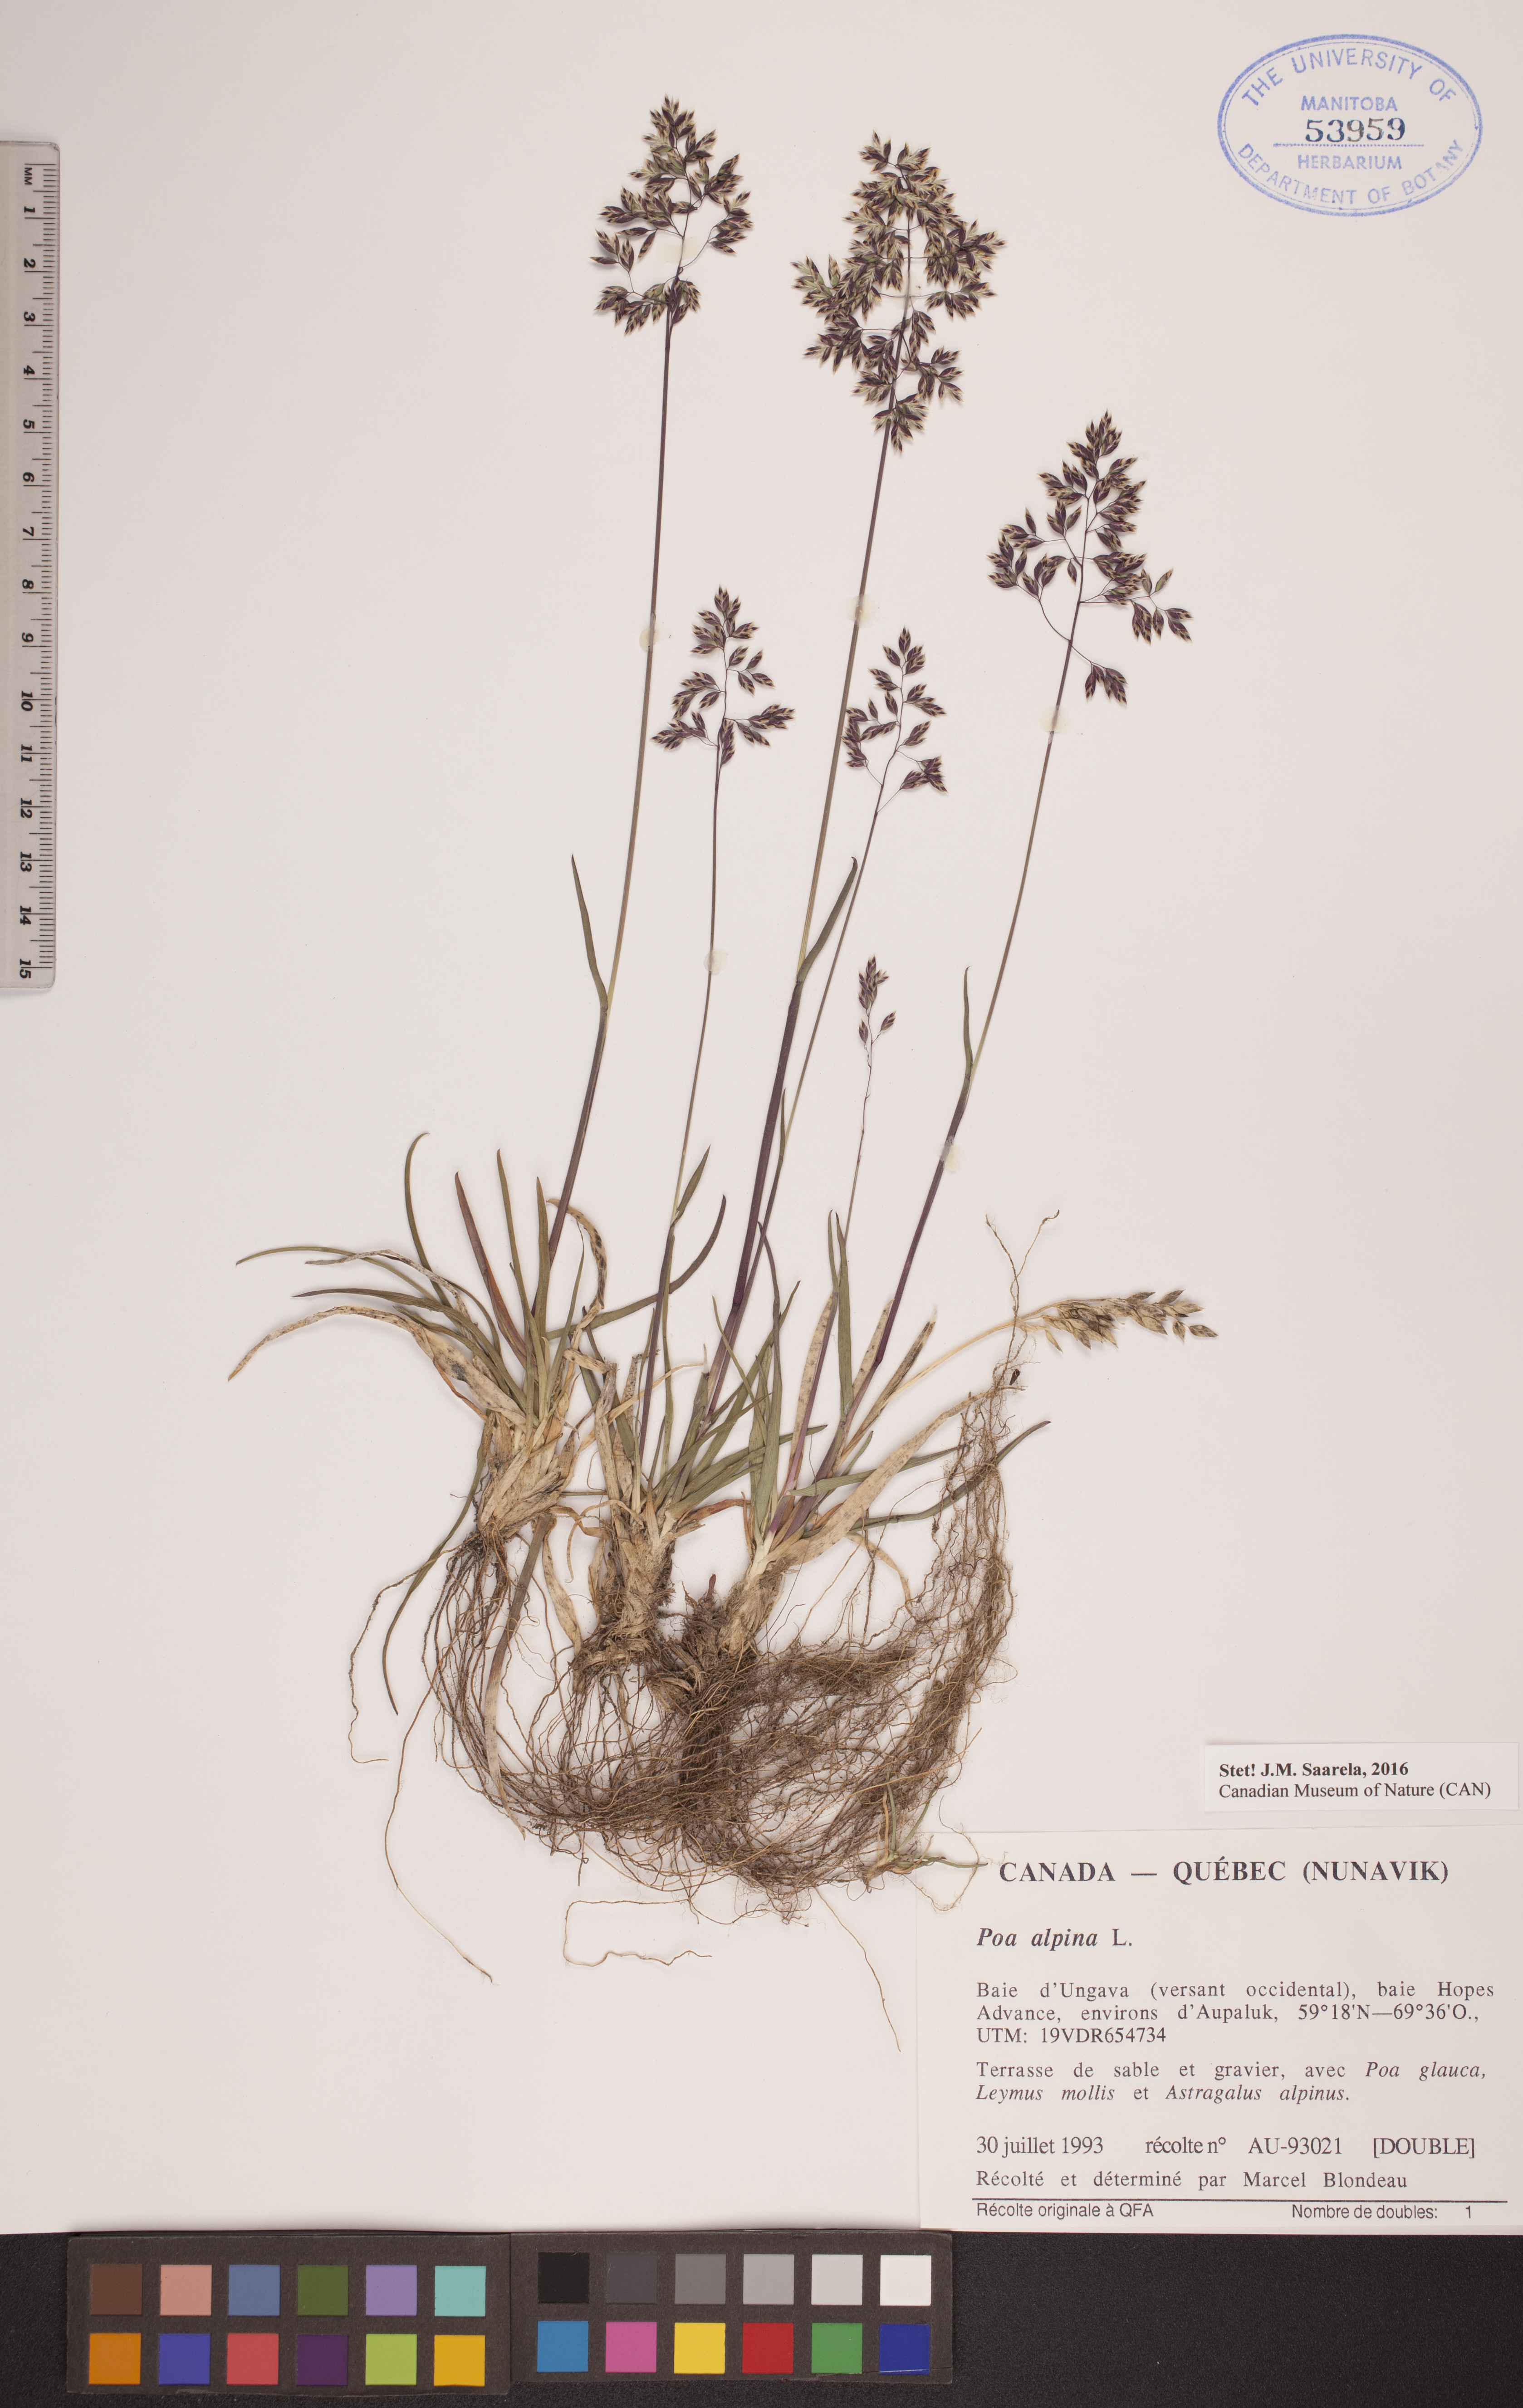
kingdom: Plantae
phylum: Tracheophyta
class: Liliopsida
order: Poales
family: Poaceae
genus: Poa
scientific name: Poa alpina
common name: Alpine bluegrass
